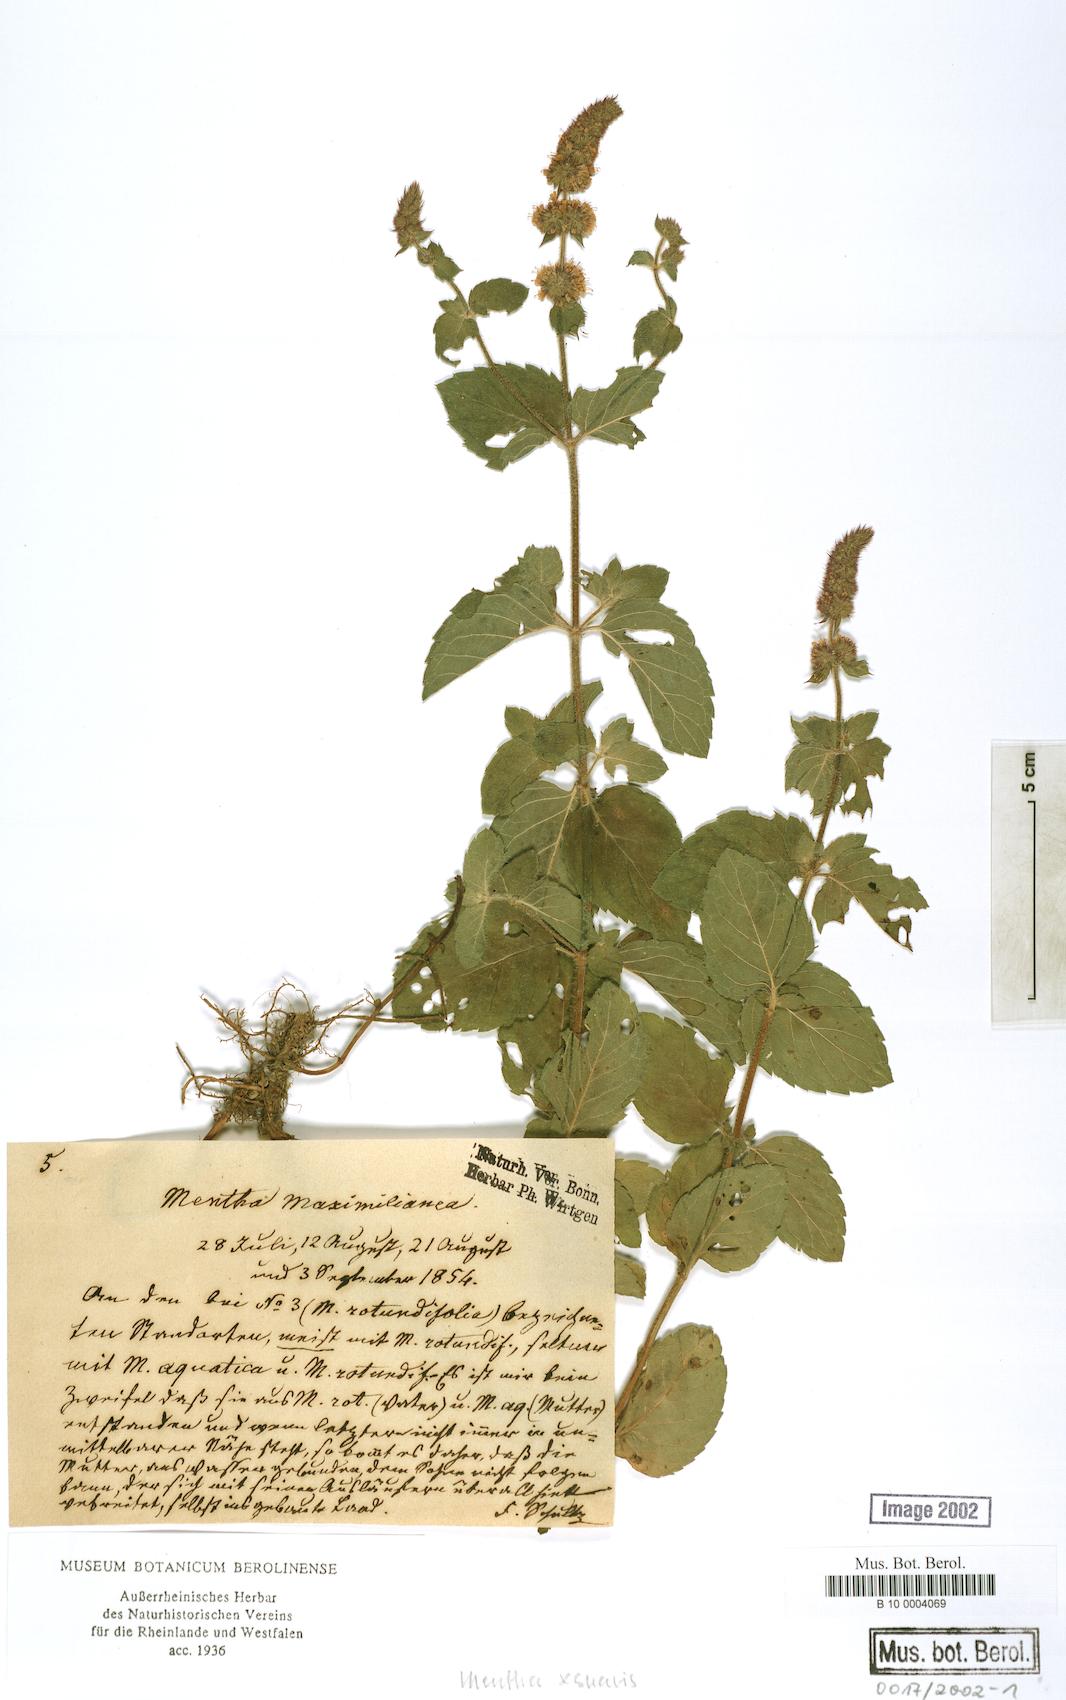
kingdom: Plantae
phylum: Tracheophyta
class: Magnoliopsida
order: Lamiales
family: Lamiaceae
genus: Mentha
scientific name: Mentha suavis
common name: Sweet mint
